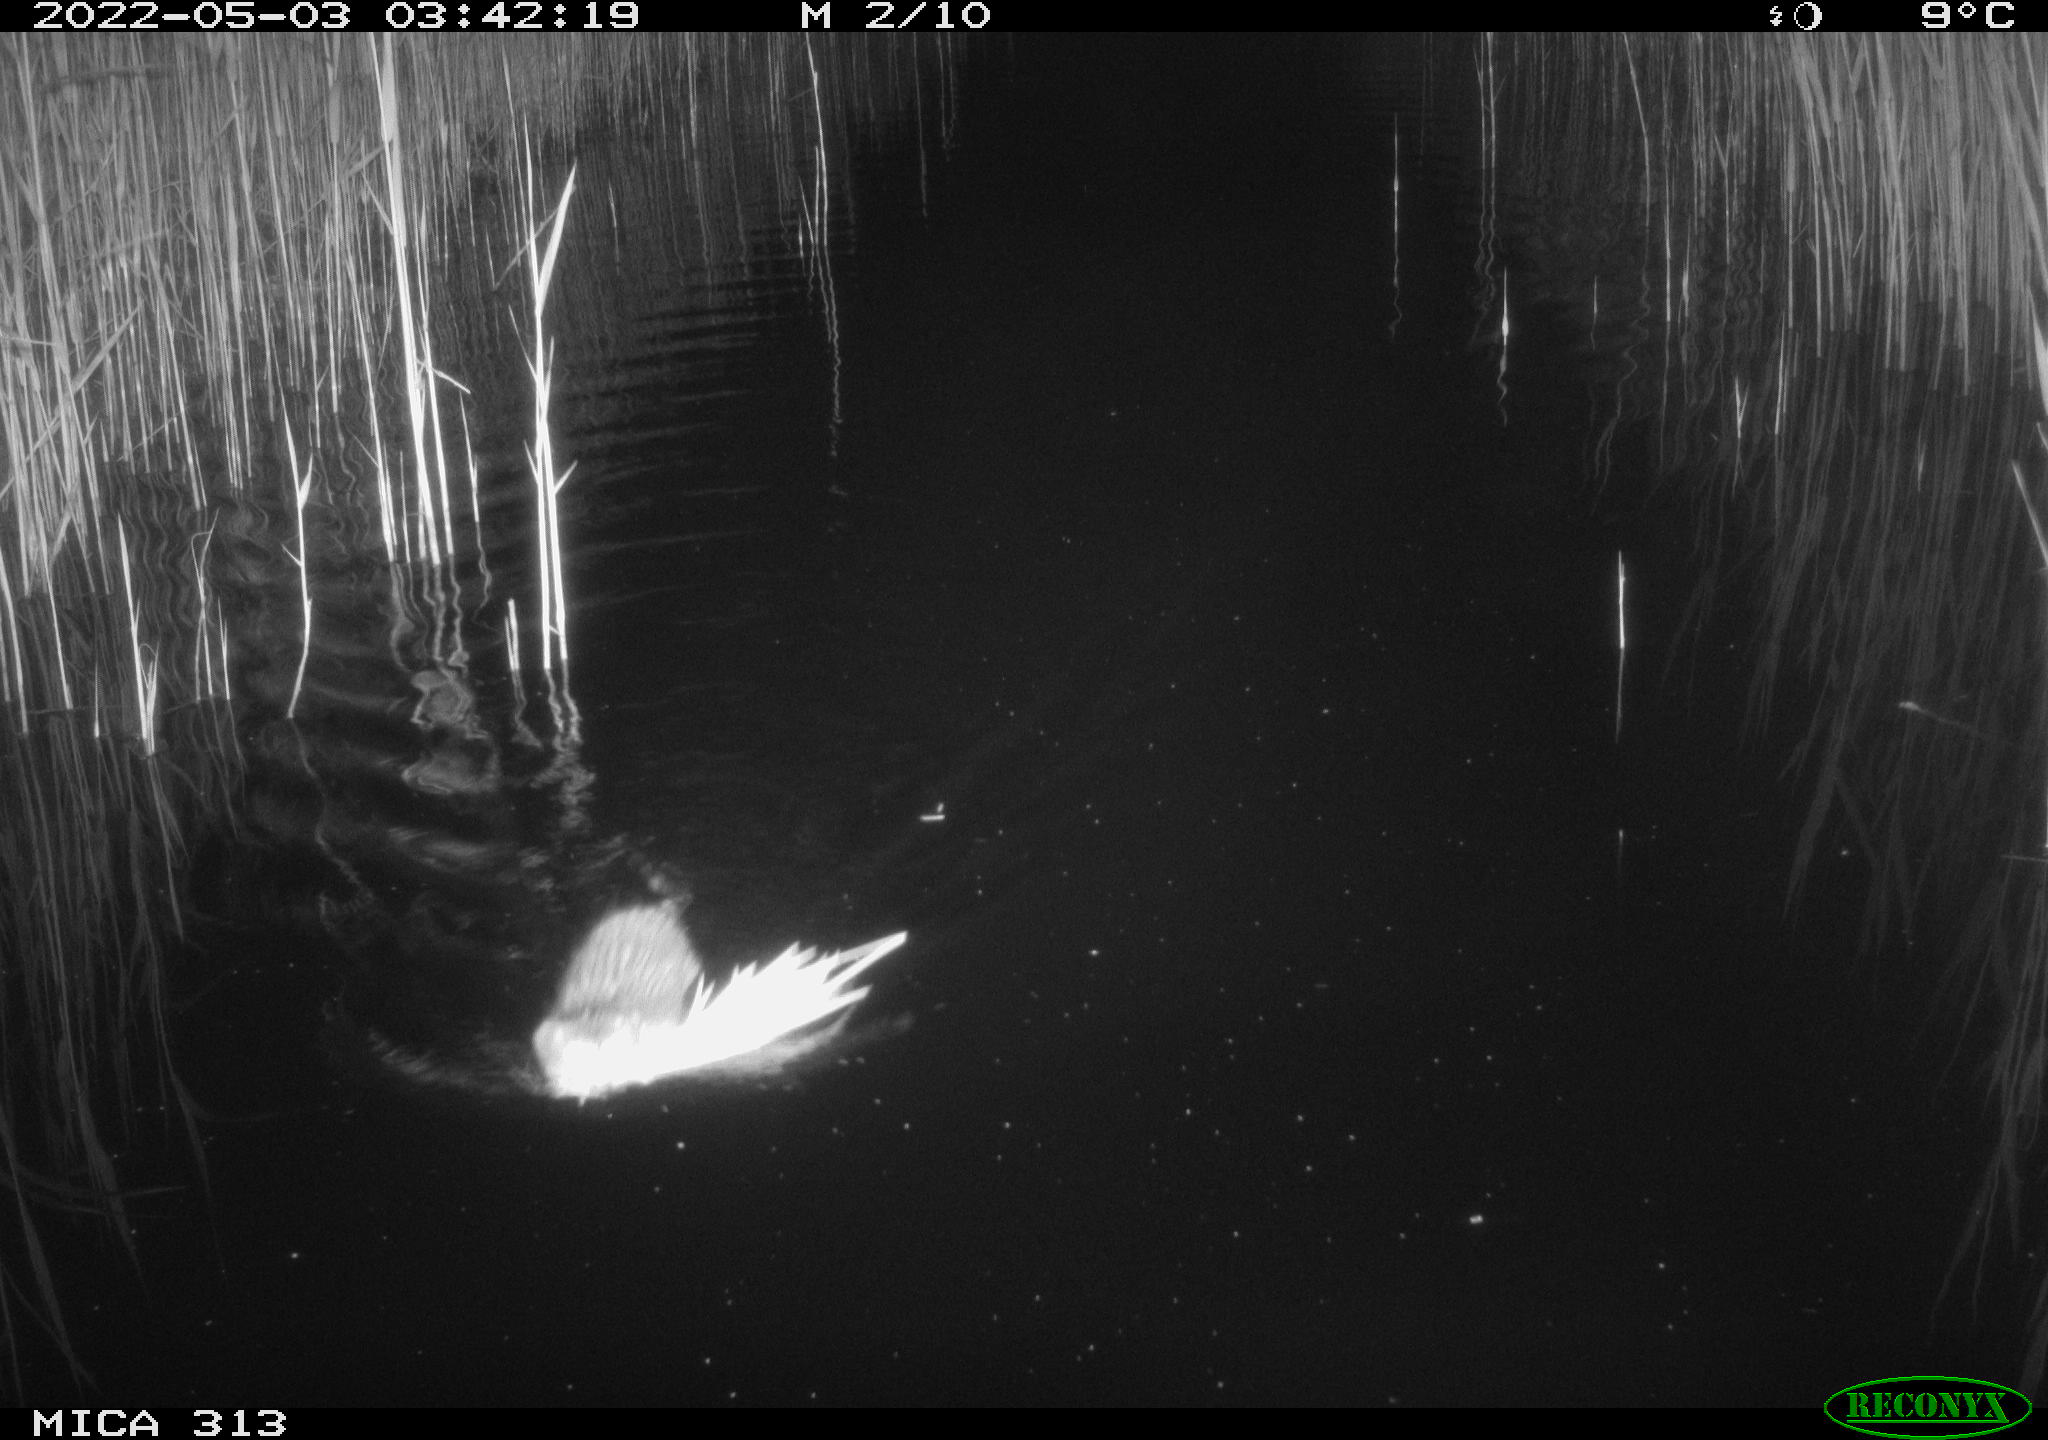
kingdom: Animalia
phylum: Chordata
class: Mammalia
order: Rodentia
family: Cricetidae
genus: Ondatra
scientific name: Ondatra zibethicus
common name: Muskrat
